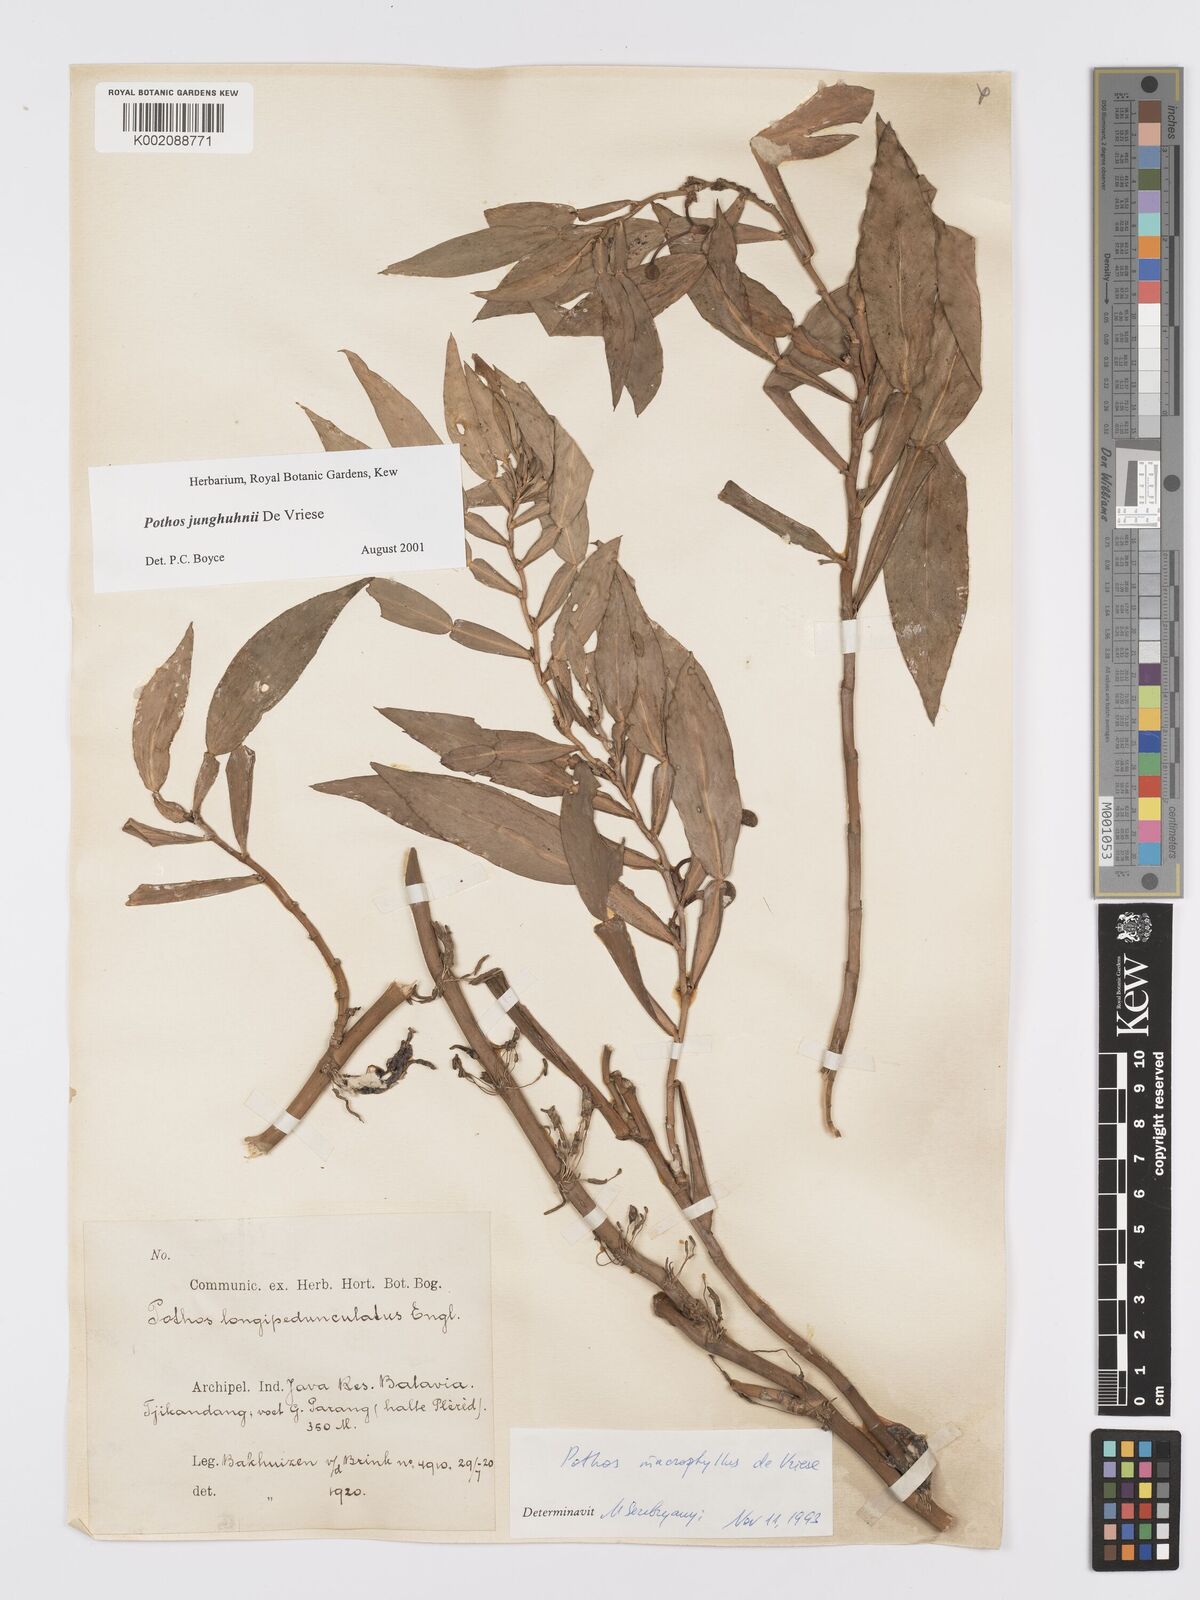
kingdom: Plantae
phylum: Tracheophyta
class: Liliopsida
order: Alismatales
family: Araceae
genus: Pothos
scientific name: Pothos junghuhnii
